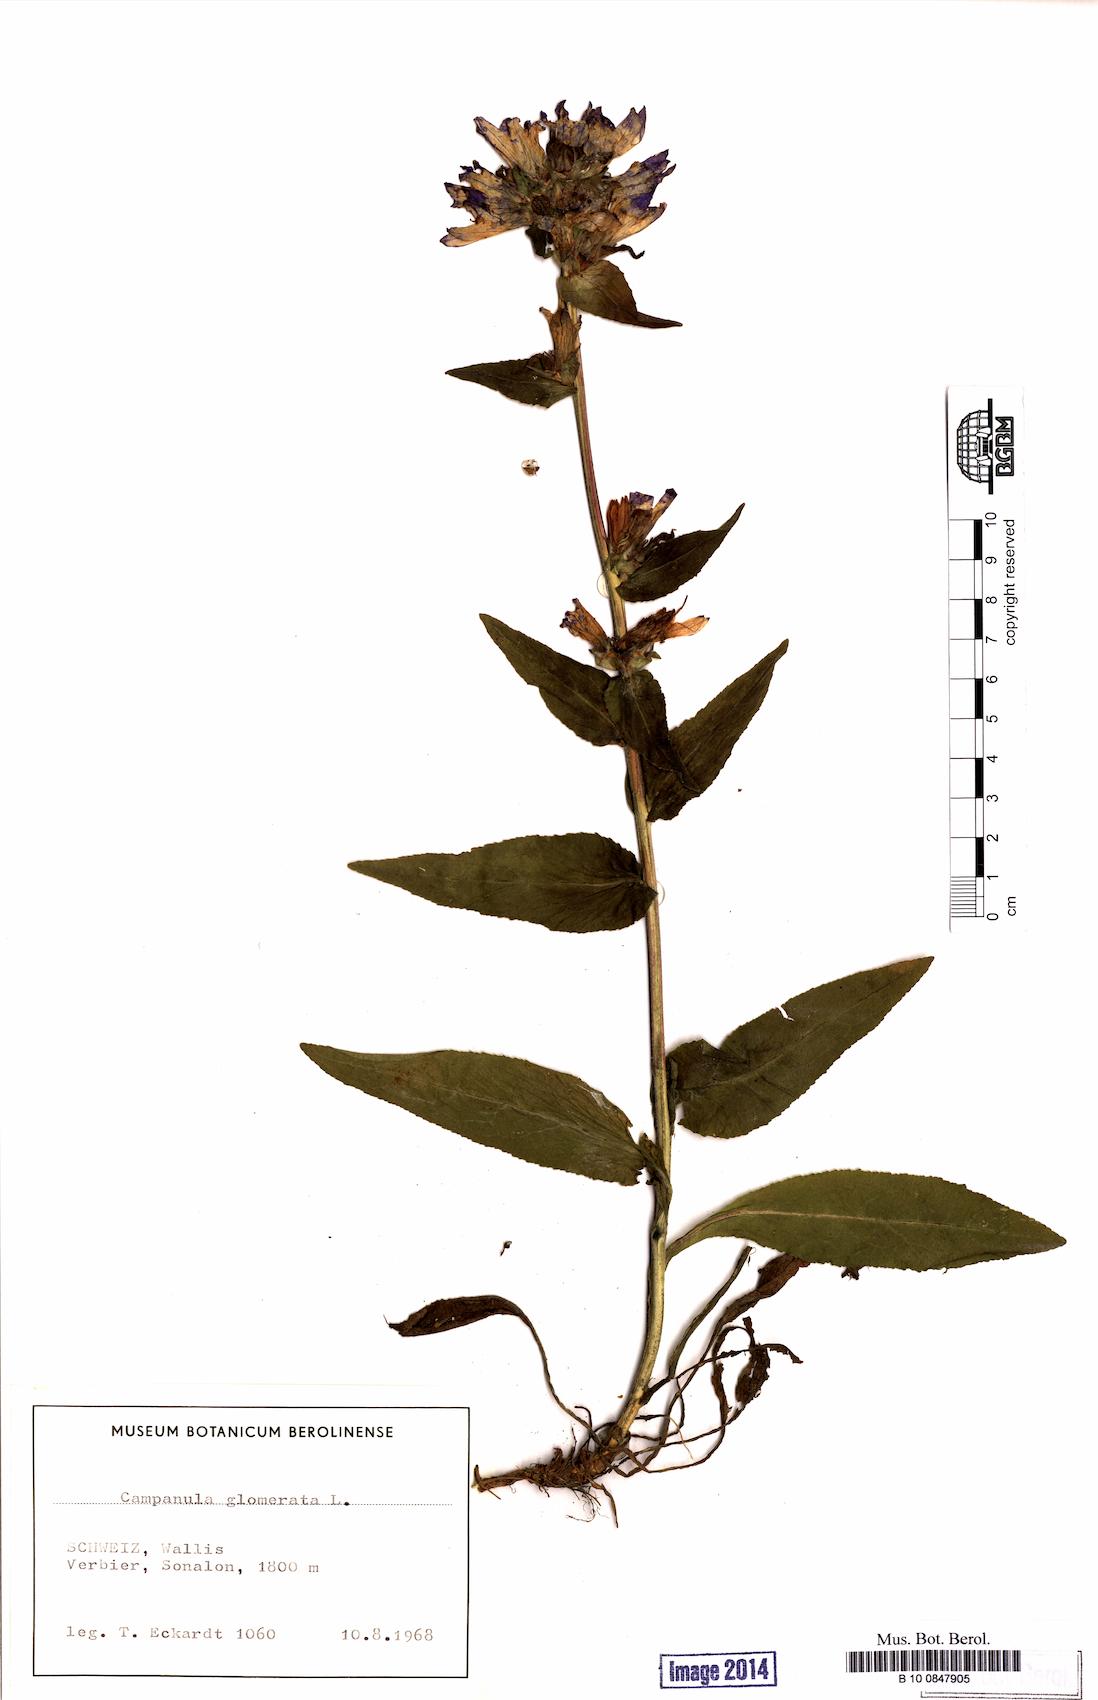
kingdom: Plantae
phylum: Tracheophyta
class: Magnoliopsida
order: Asterales
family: Campanulaceae
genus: Campanula
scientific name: Campanula glomerata
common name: Clustered bellflower
